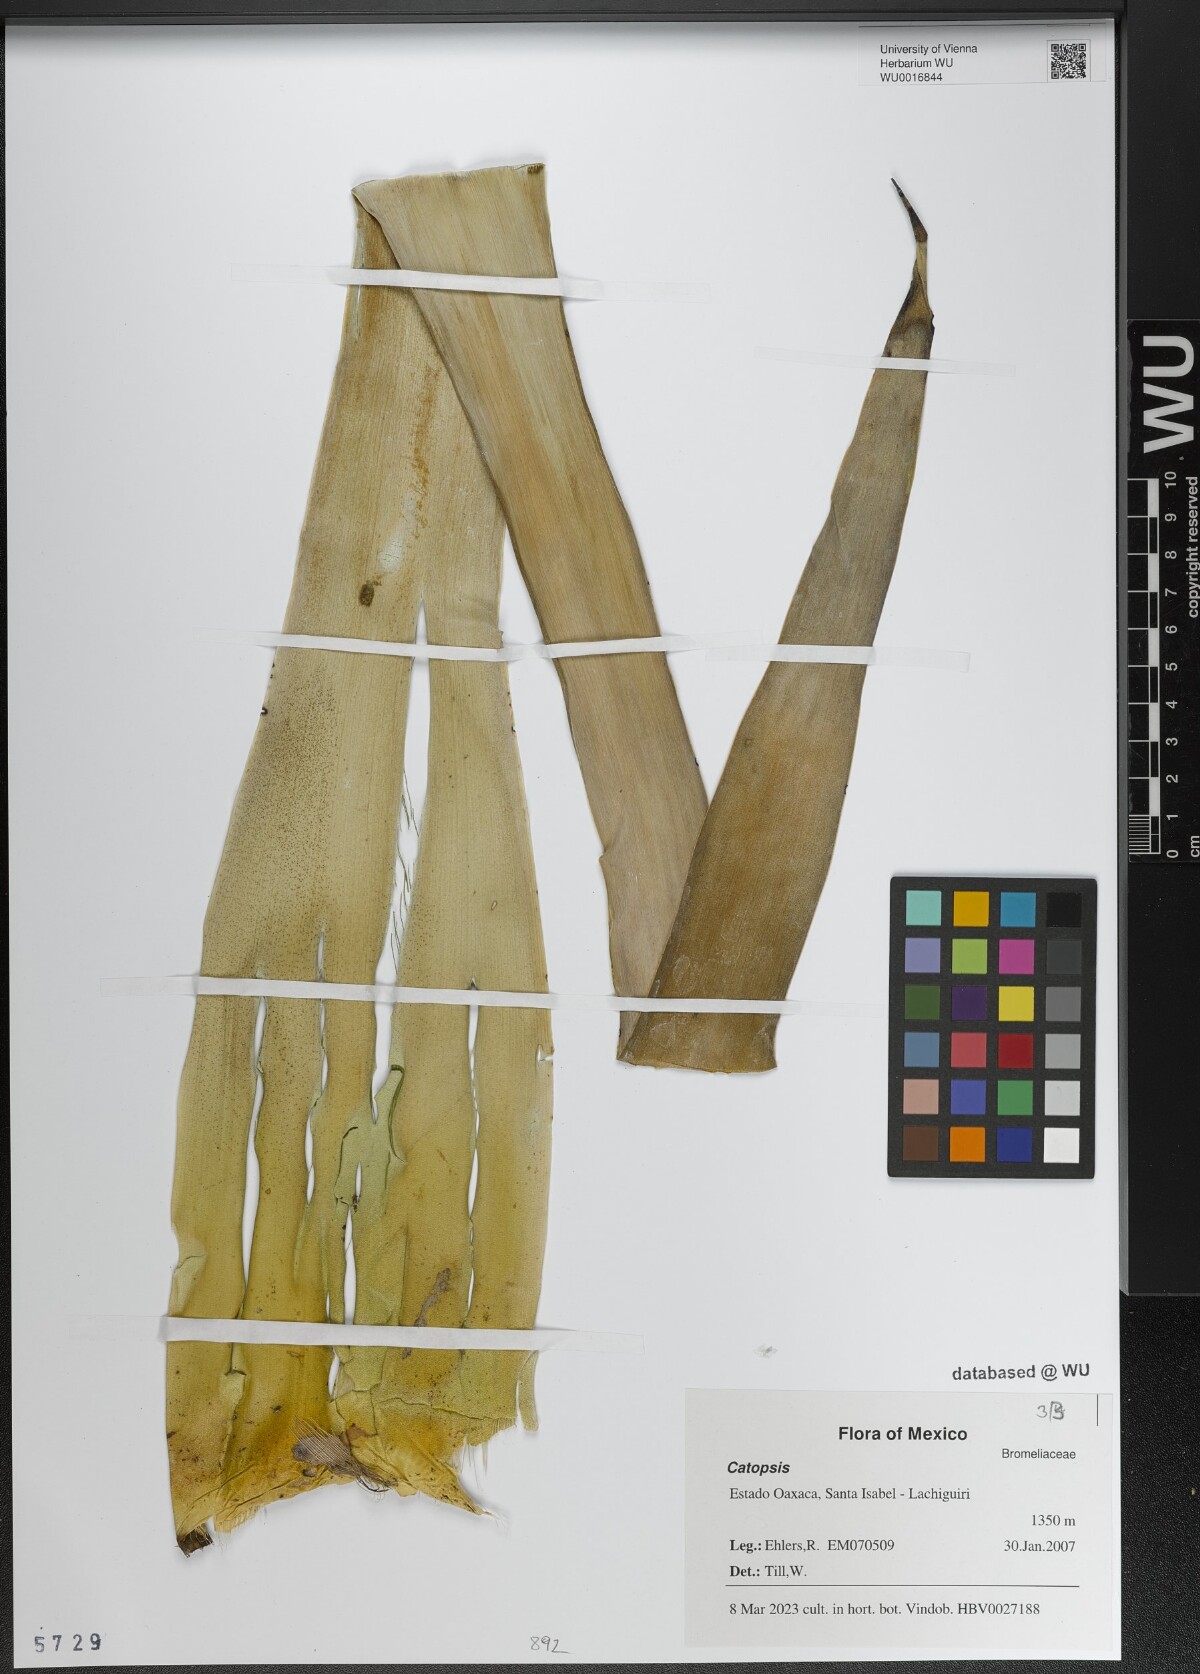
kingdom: Plantae
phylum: Tracheophyta
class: Liliopsida
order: Poales
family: Bromeliaceae
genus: Catopsis
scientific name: Catopsis
